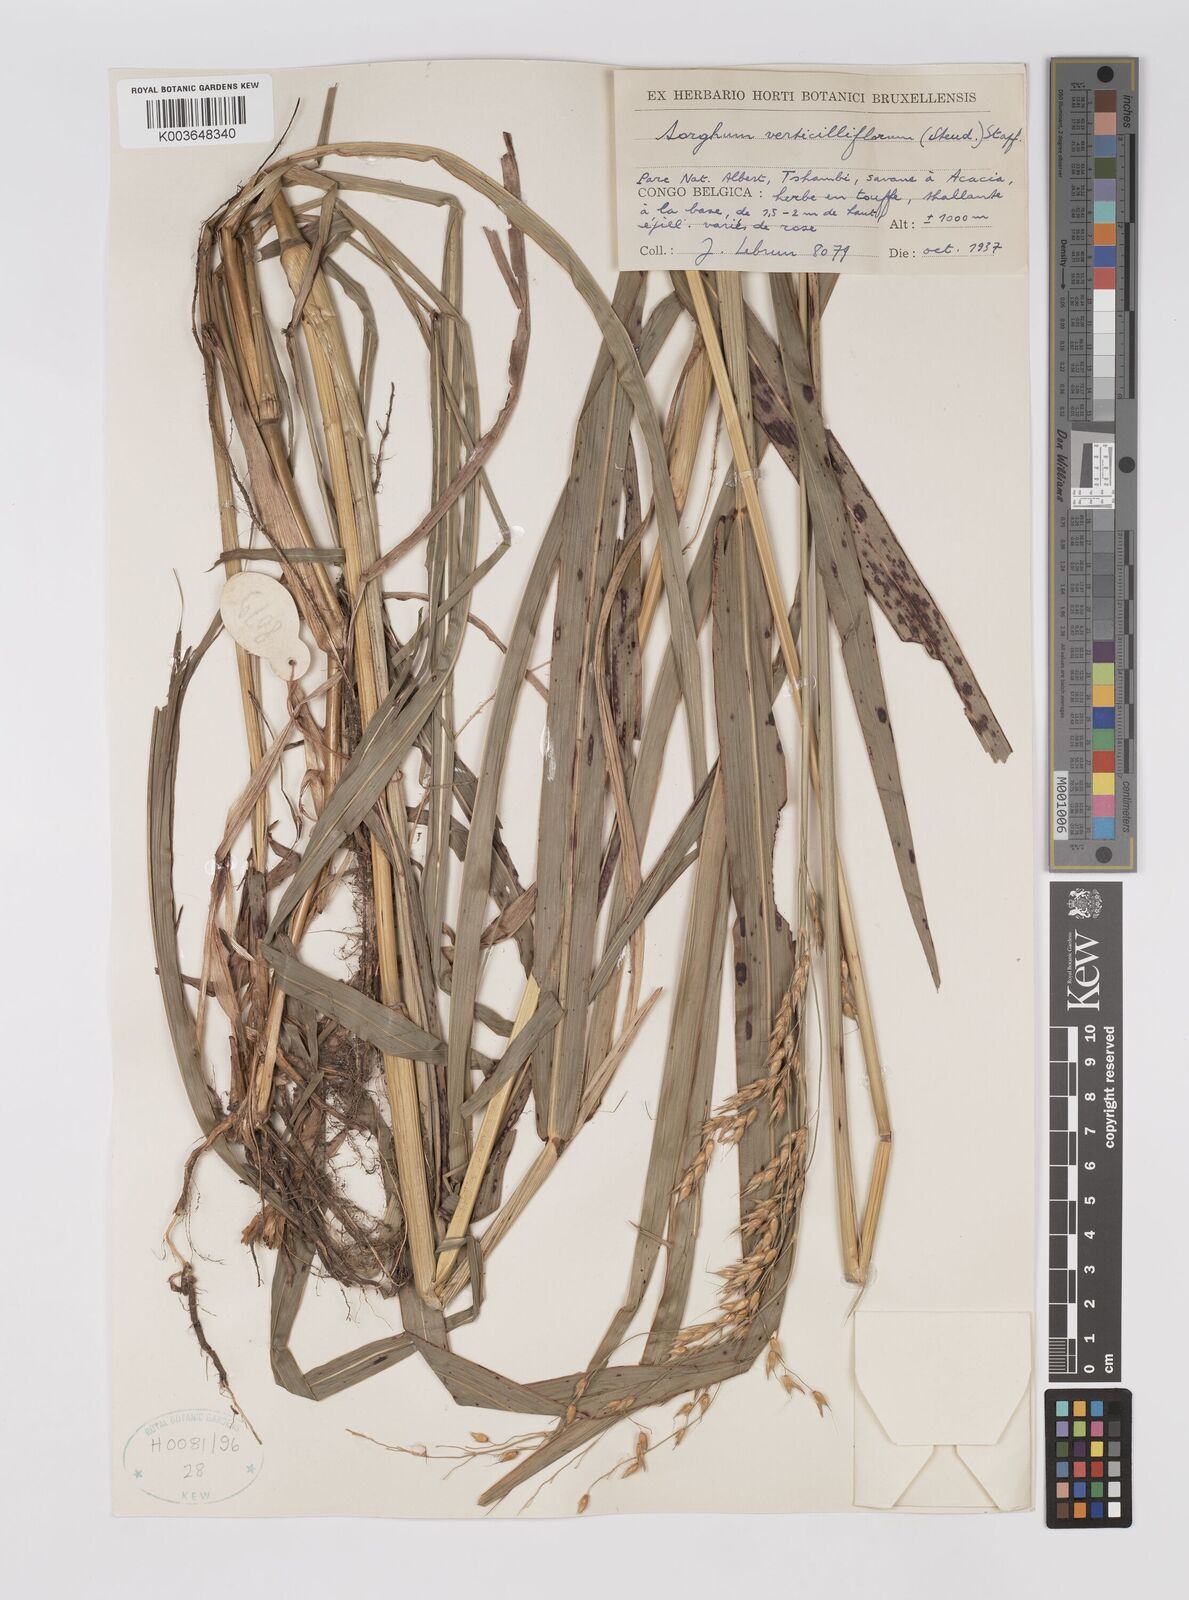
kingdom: Plantae
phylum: Tracheophyta
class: Liliopsida
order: Poales
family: Poaceae
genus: Sorghum
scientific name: Sorghum arundinaceum
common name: Sorghum
